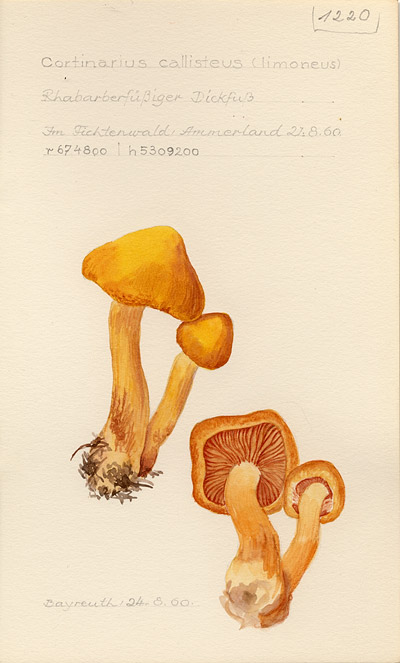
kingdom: Fungi
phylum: Basidiomycota
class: Agaricomycetes
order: Agaricales
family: Cortinariaceae
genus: Aureonarius
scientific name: Aureonarius callisteus
